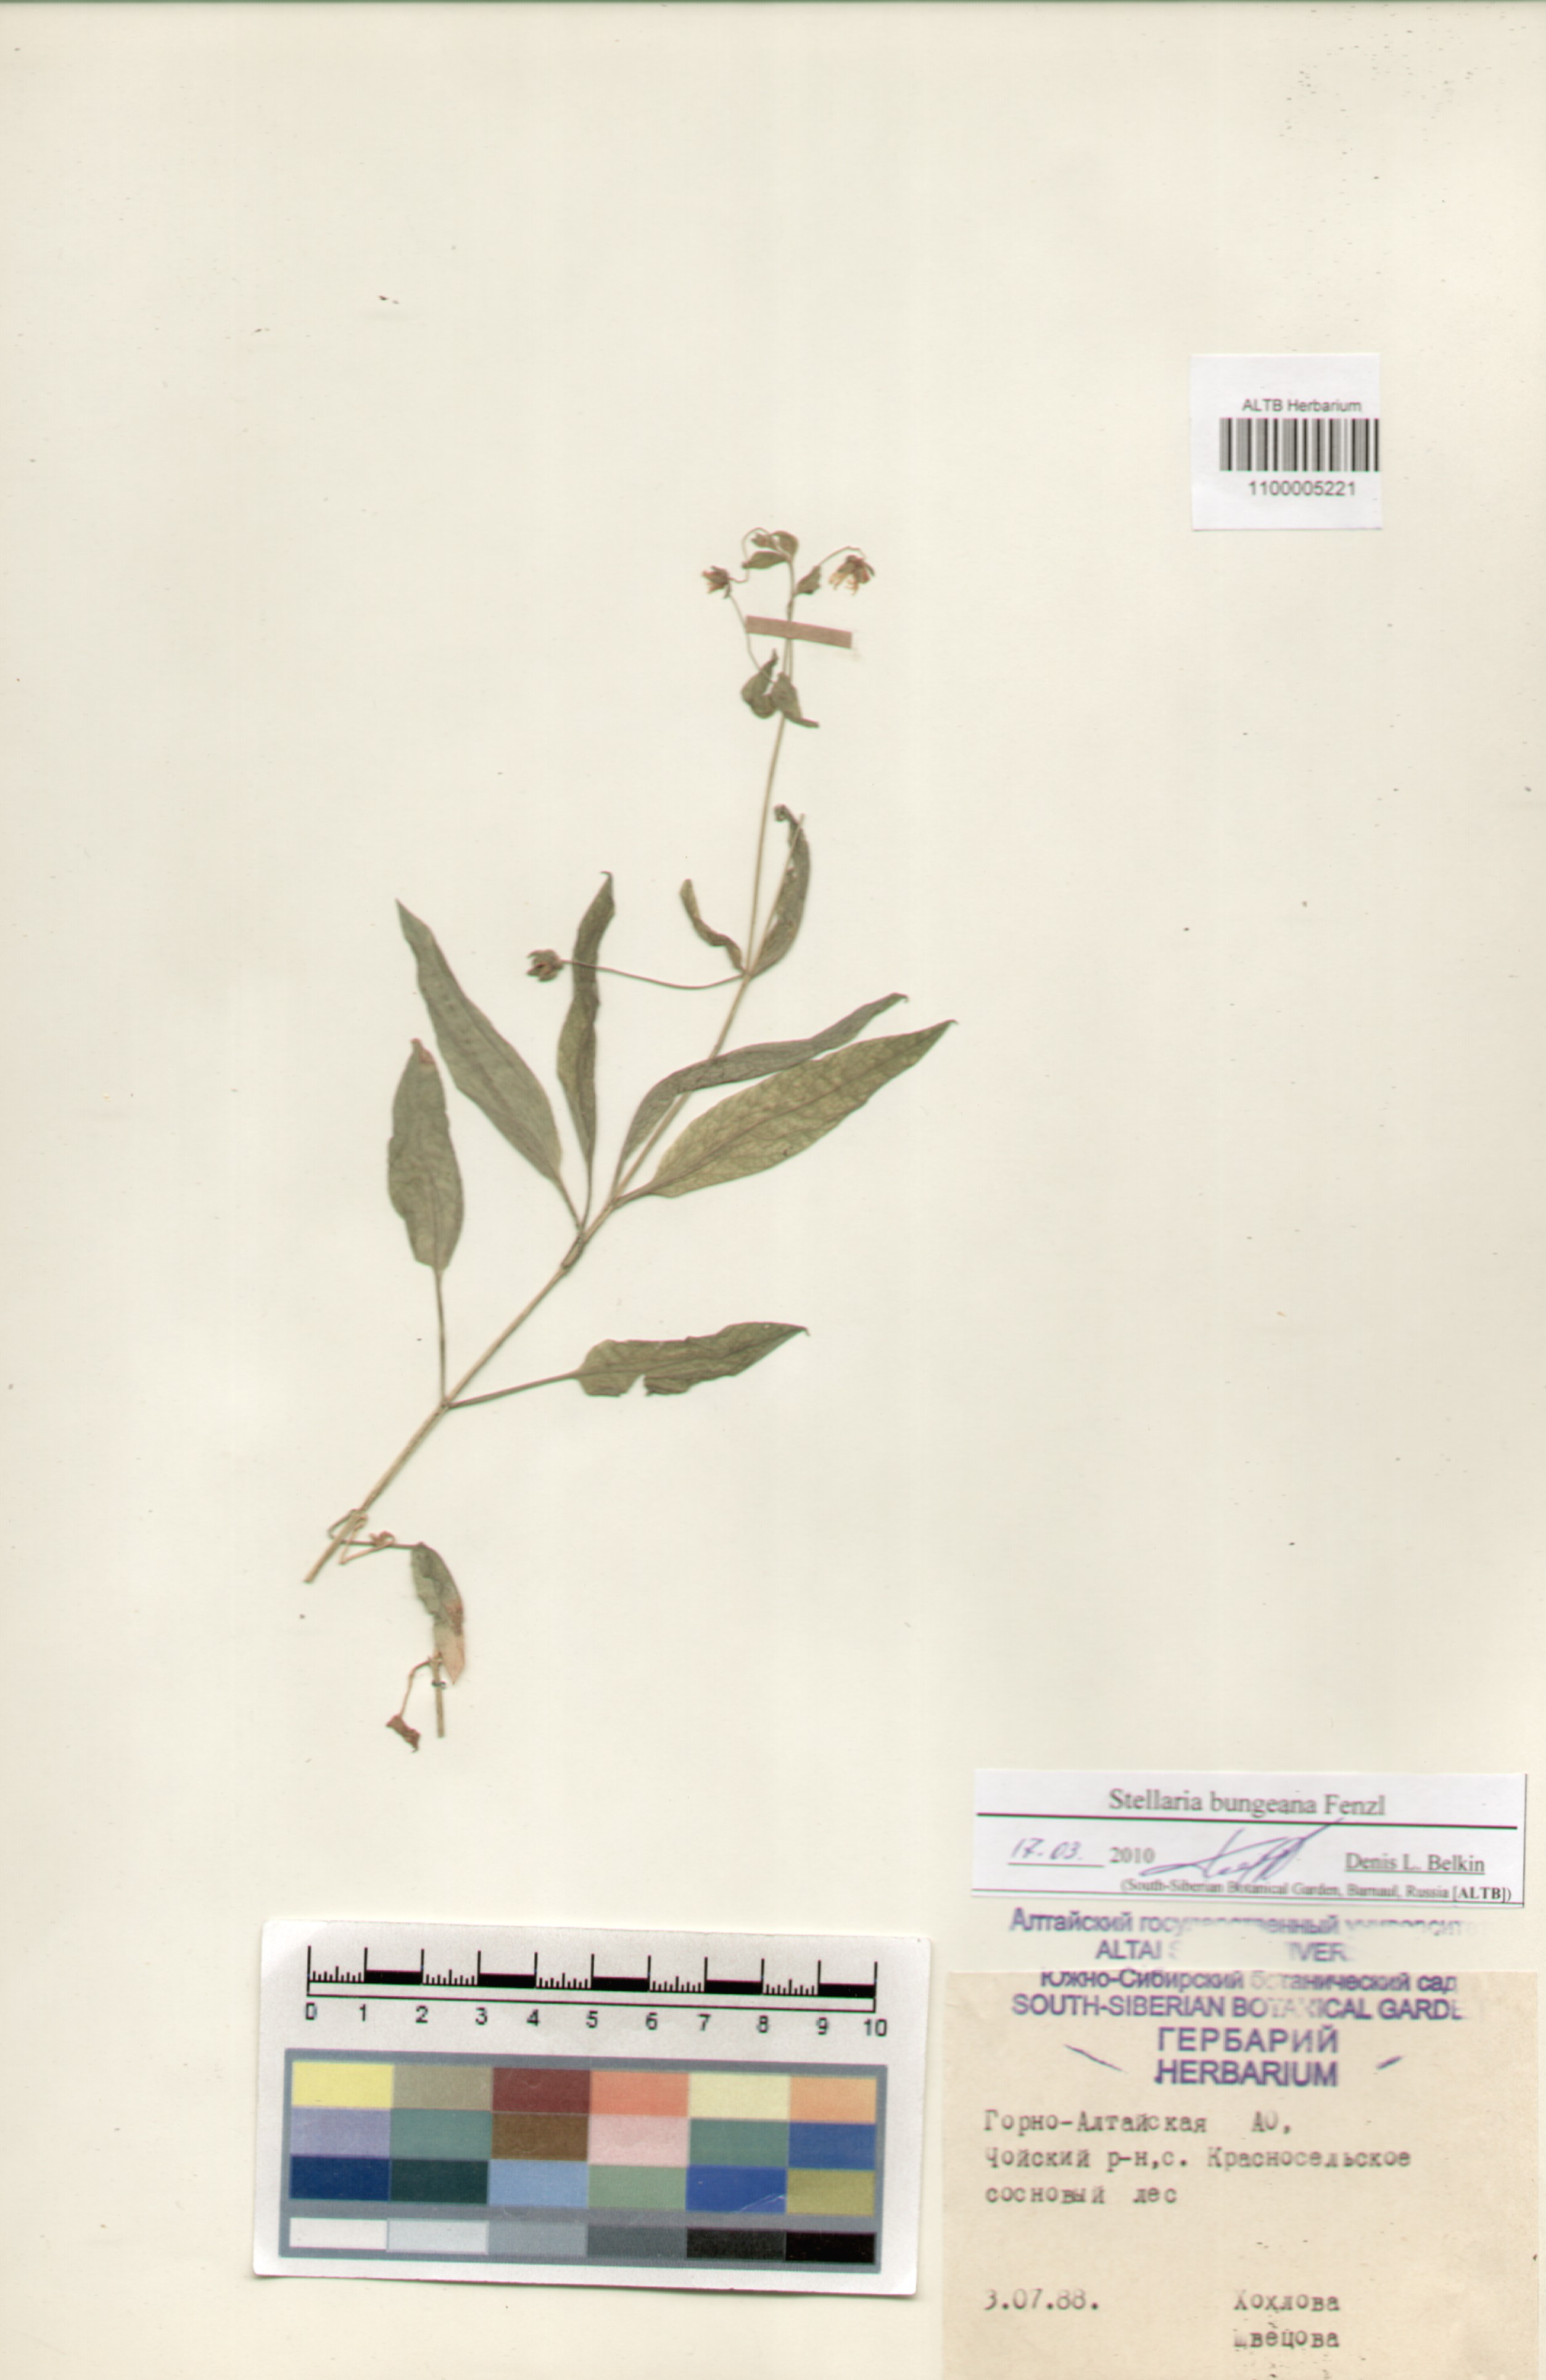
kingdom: Plantae
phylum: Tracheophyta
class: Magnoliopsida
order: Caryophyllales
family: Caryophyllaceae
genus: Stellaria
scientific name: Stellaria bungeana
